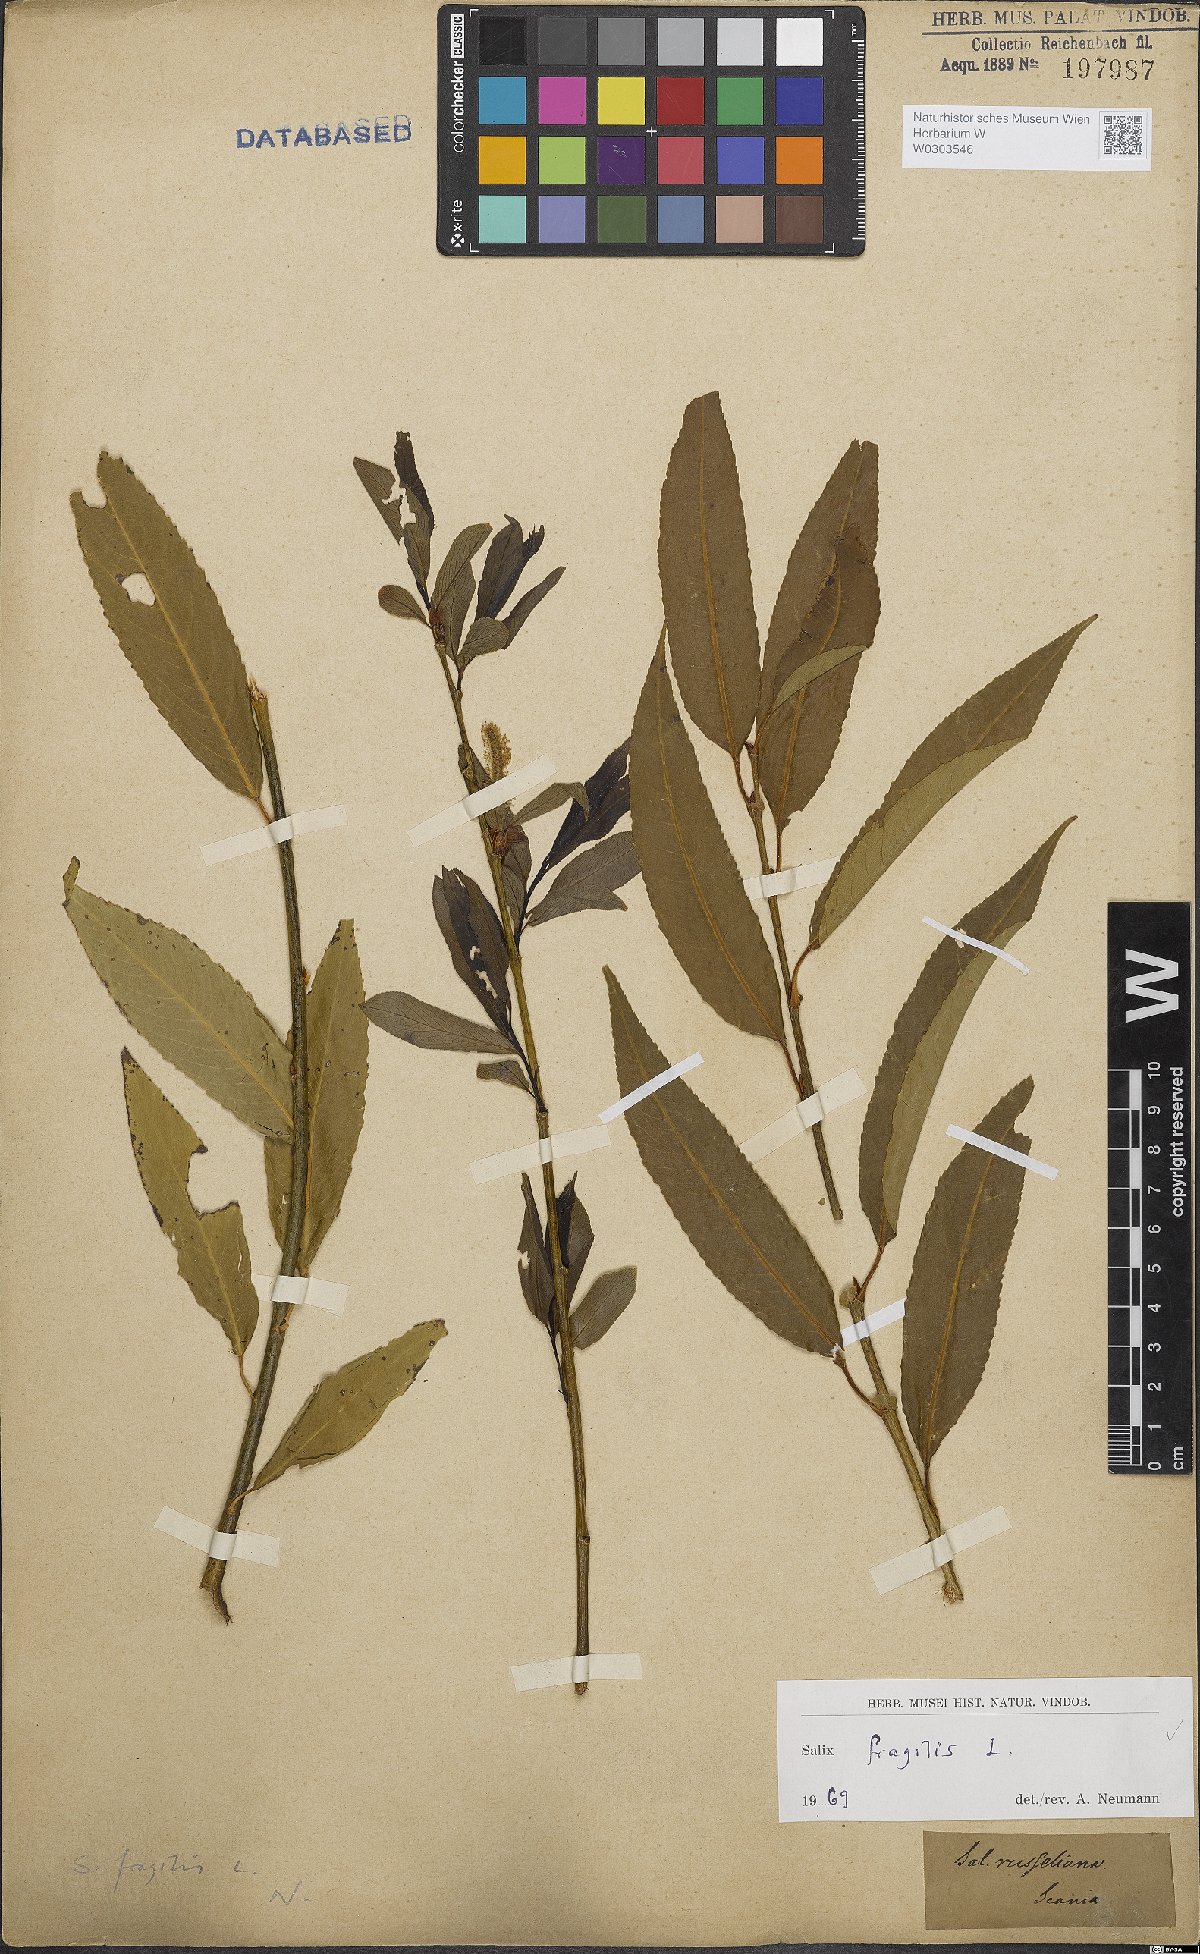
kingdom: Plantae
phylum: Tracheophyta
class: Magnoliopsida
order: Malpighiales
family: Salicaceae
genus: Salix
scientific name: Salix fragilis
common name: Crack willow
